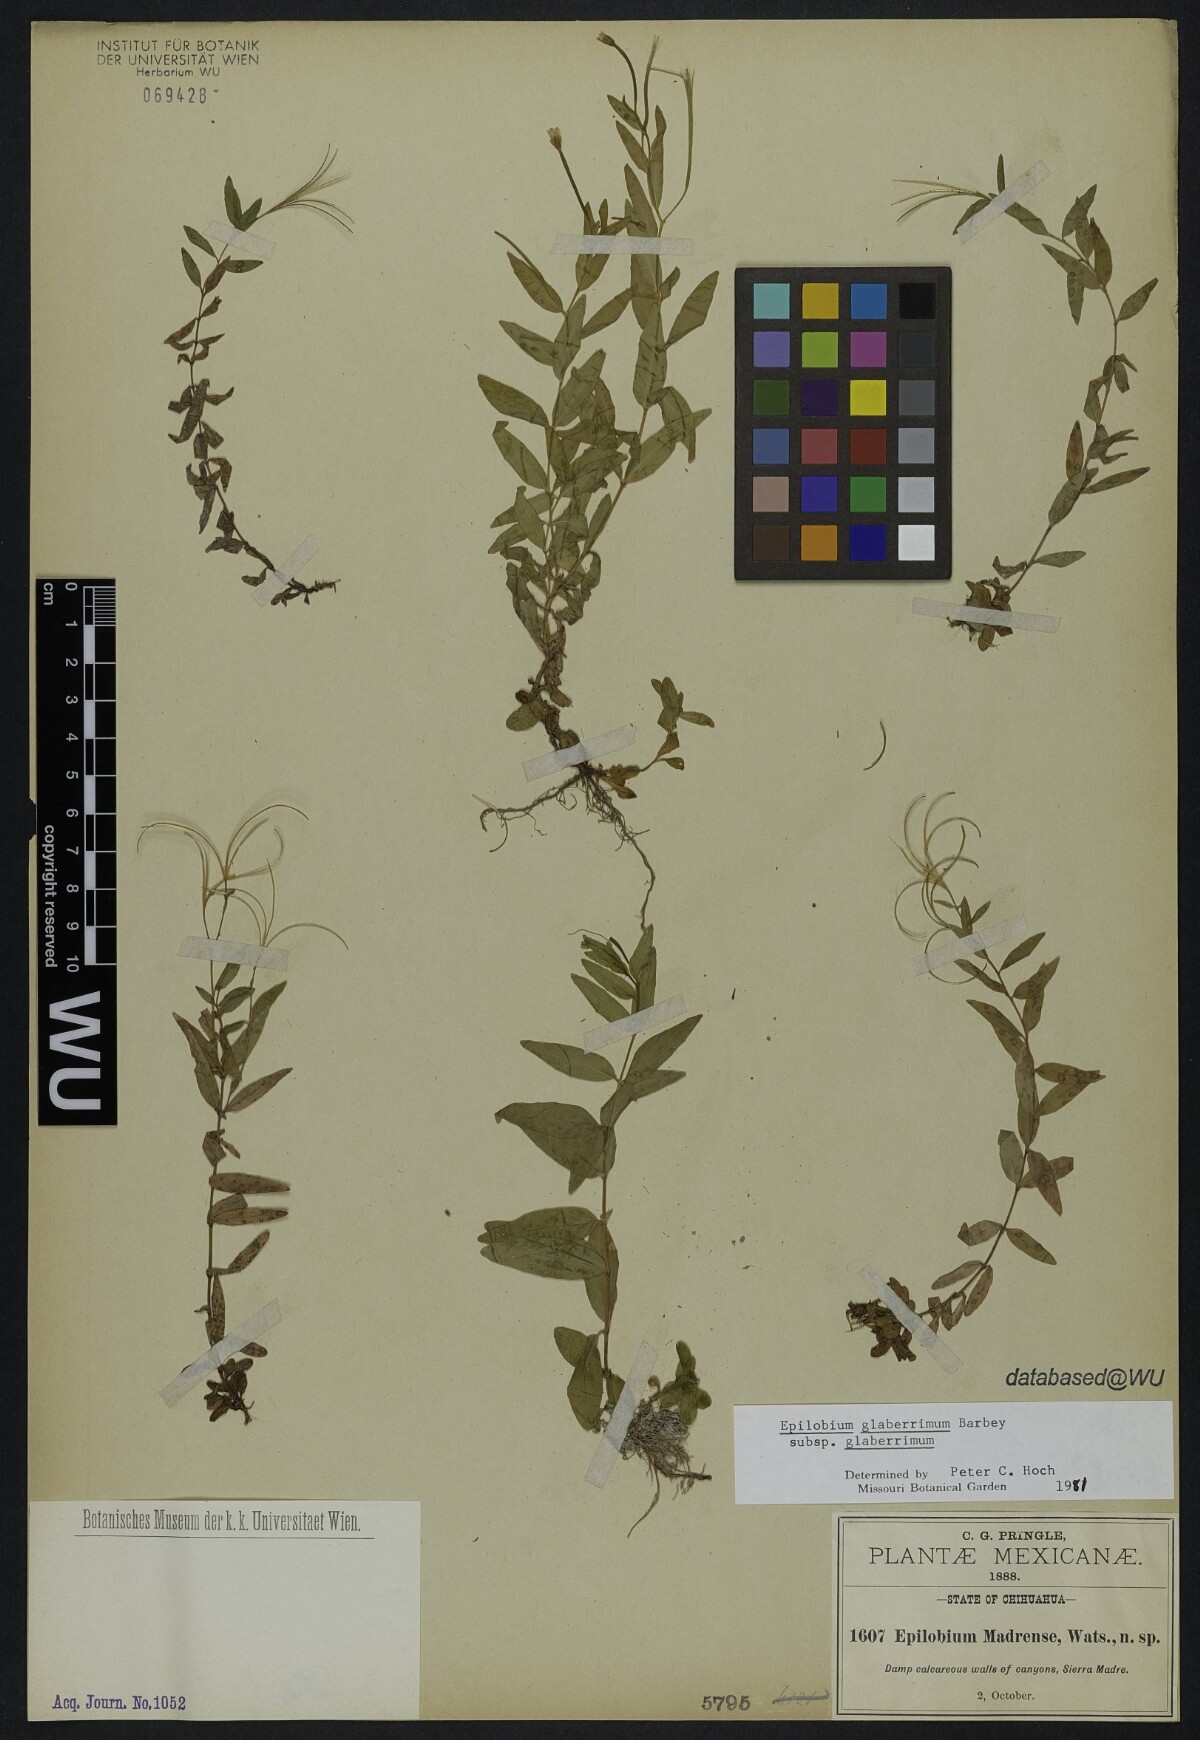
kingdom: Plantae
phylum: Tracheophyta
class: Magnoliopsida
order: Myrtales
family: Onagraceae
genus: Epilobium
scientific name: Epilobium glaberrimum
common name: Glaucous willowherb
